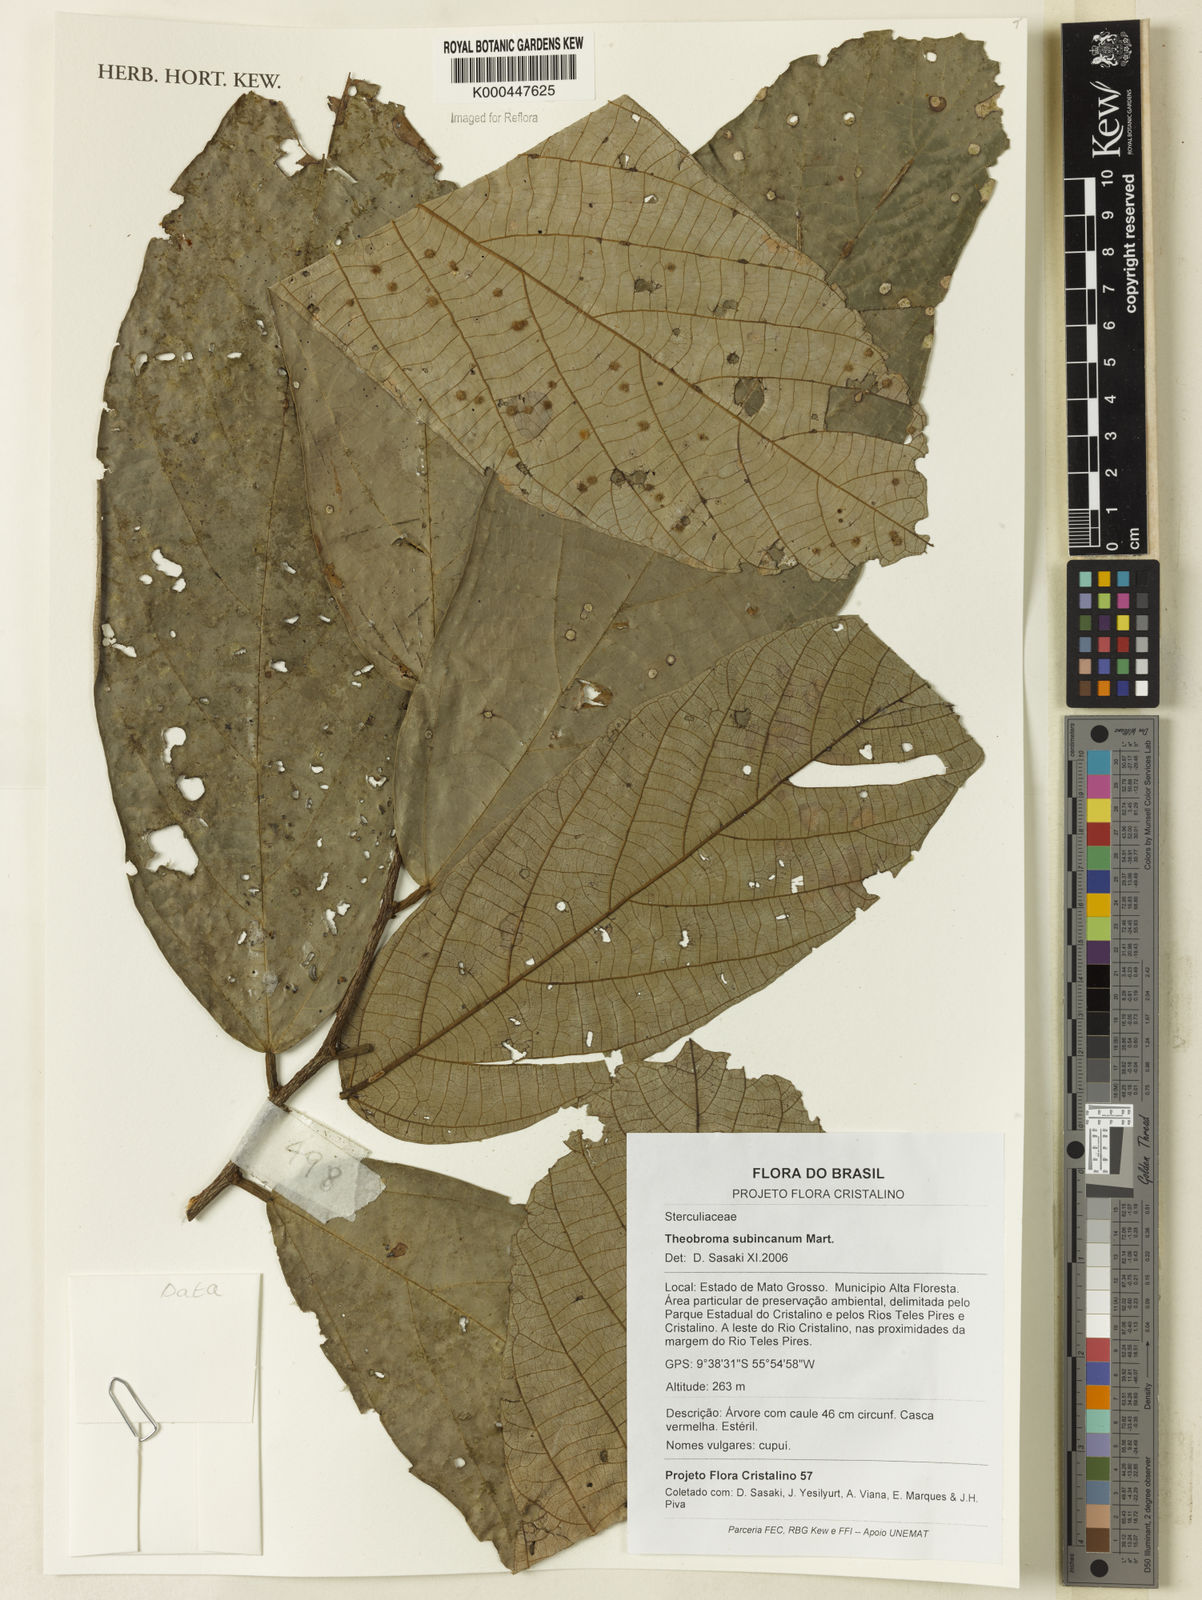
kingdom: Plantae
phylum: Tracheophyta
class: Magnoliopsida
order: Malvales
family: Malvaceae
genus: Theobroma
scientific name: Theobroma subincanum
